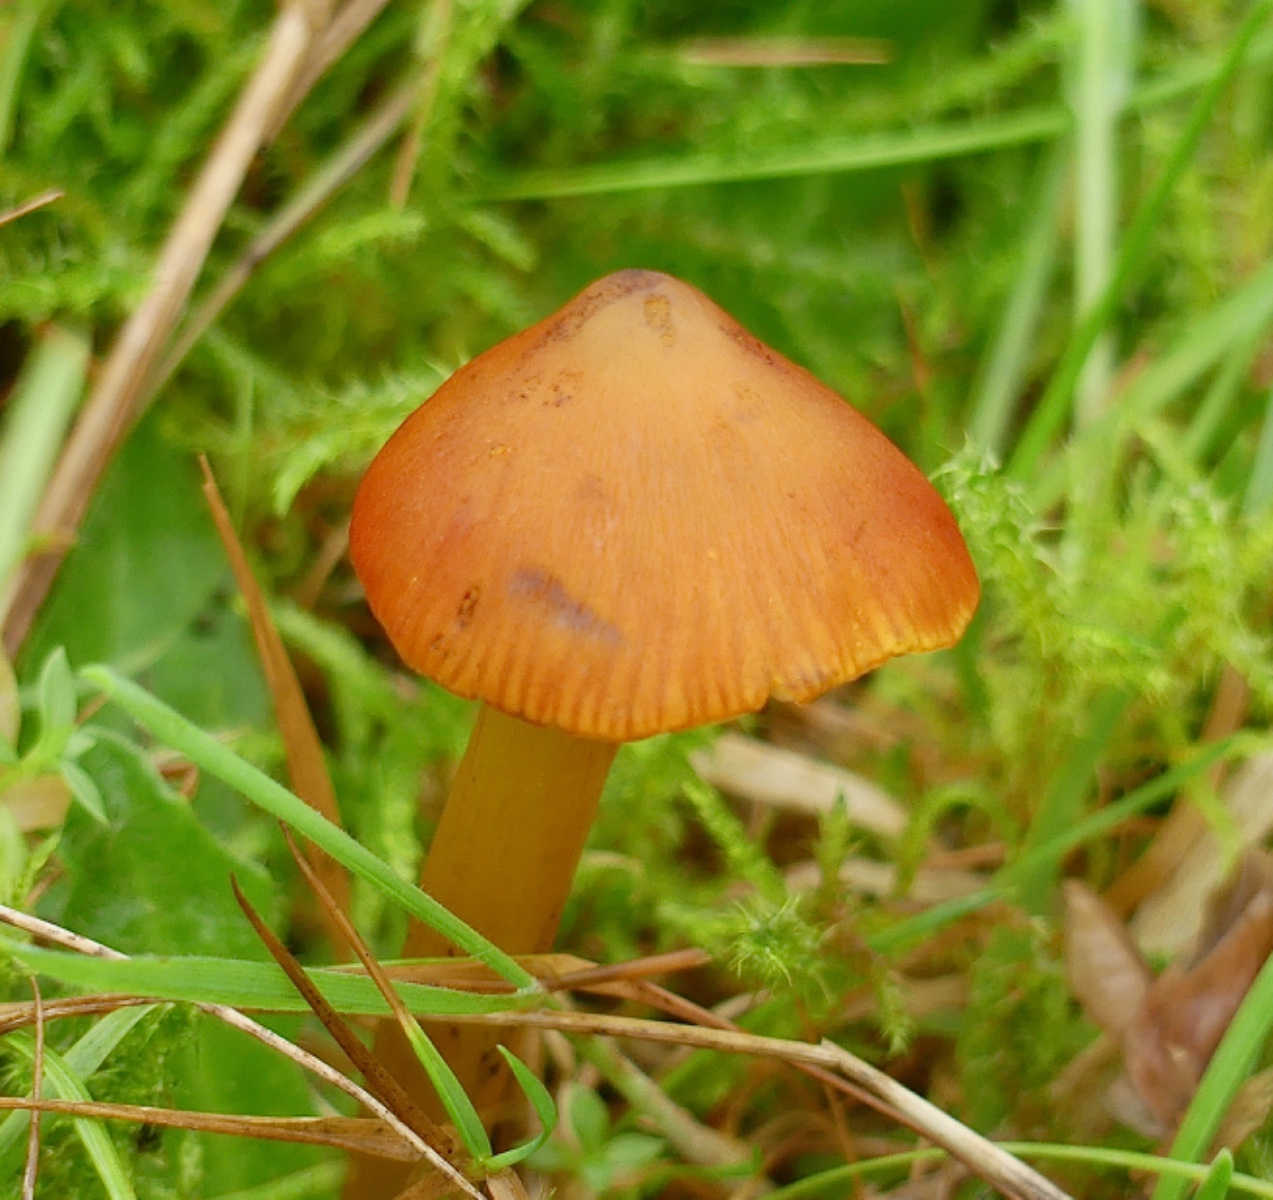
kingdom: Fungi
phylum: Basidiomycota
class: Agaricomycetes
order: Agaricales
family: Hygrophoraceae
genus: Hygrocybe
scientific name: Hygrocybe conica
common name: kegle-vokshat
